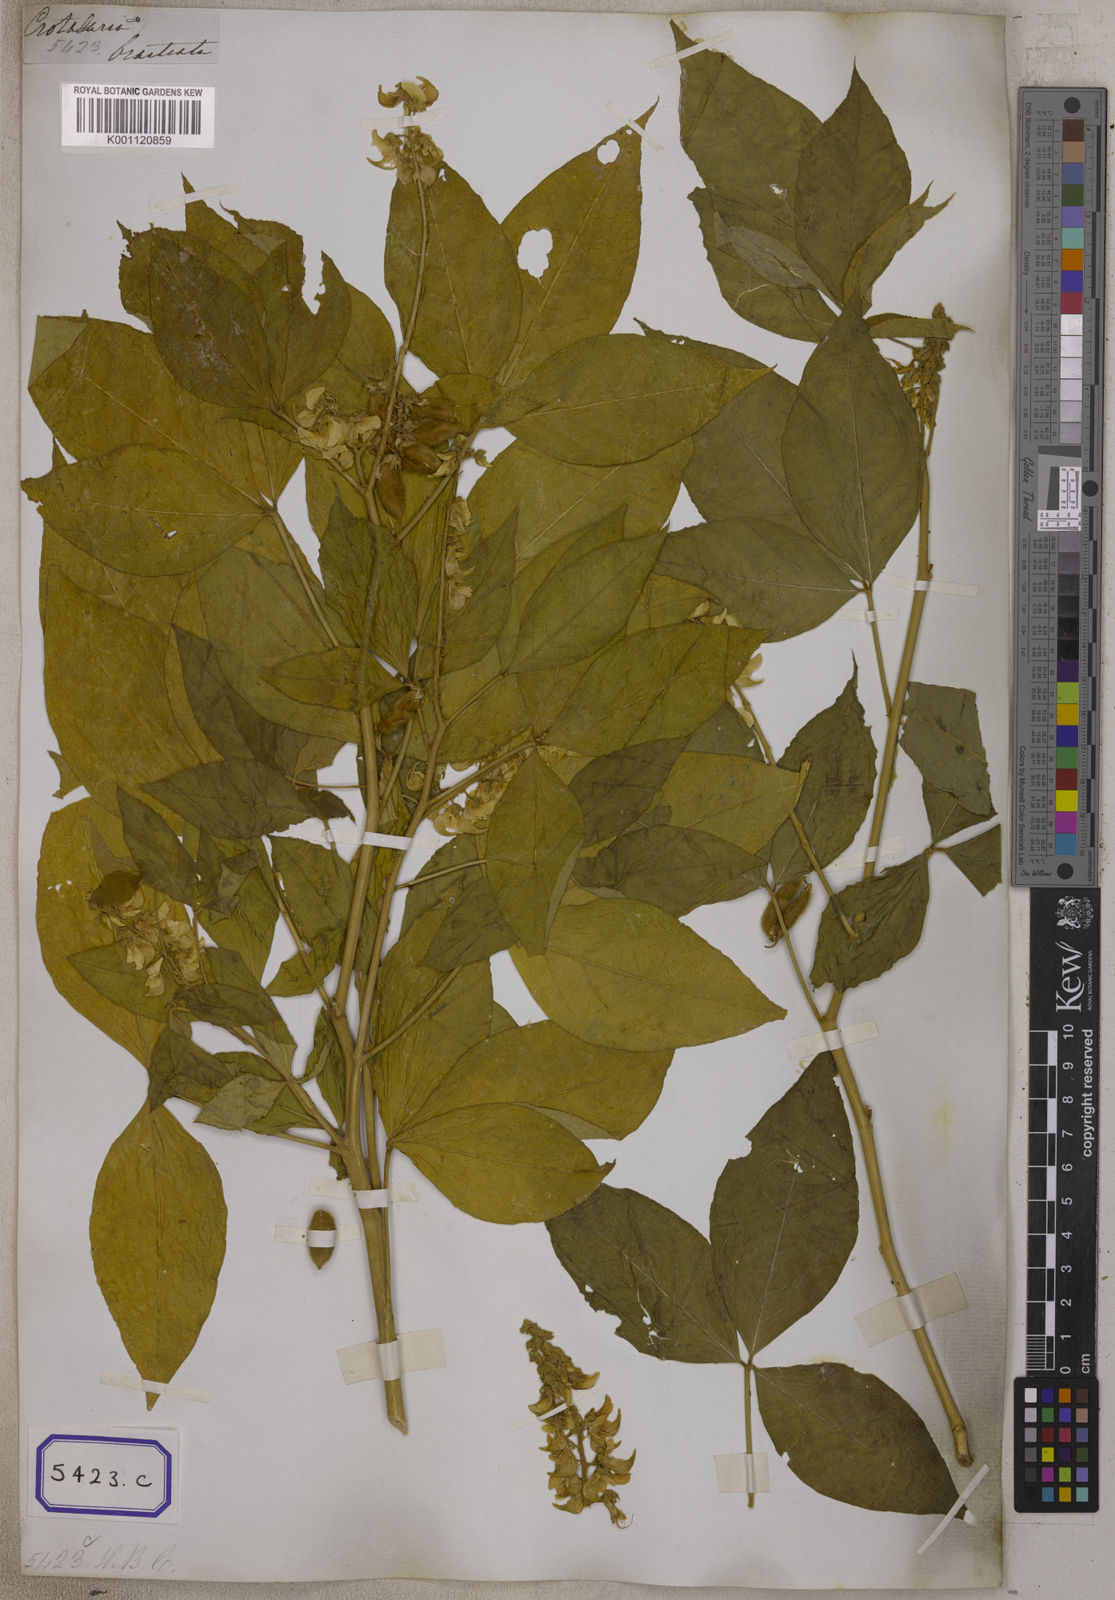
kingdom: Plantae
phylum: Tracheophyta
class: Magnoliopsida
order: Fabales
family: Fabaceae
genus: Crotalaria
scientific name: Crotalaria
